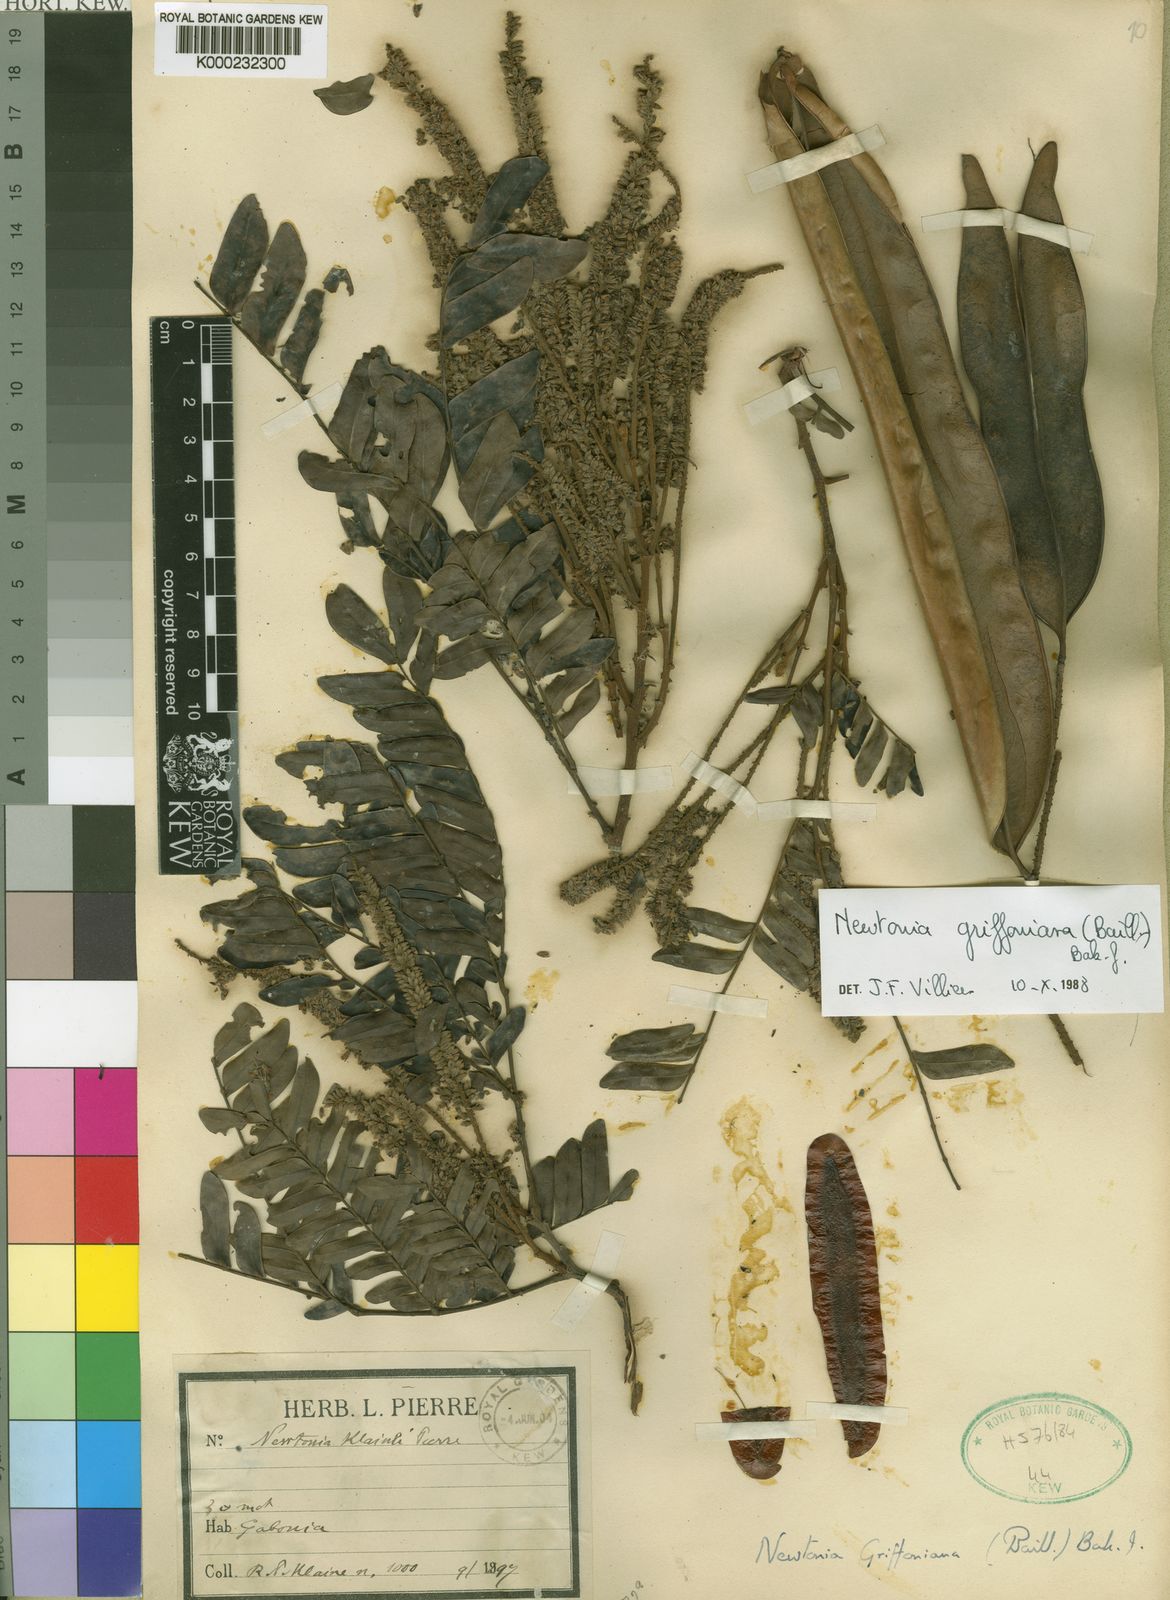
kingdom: Plantae
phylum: Tracheophyta
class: Magnoliopsida
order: Fabales
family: Fabaceae
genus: Newtonia
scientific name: Newtonia griffoniana
